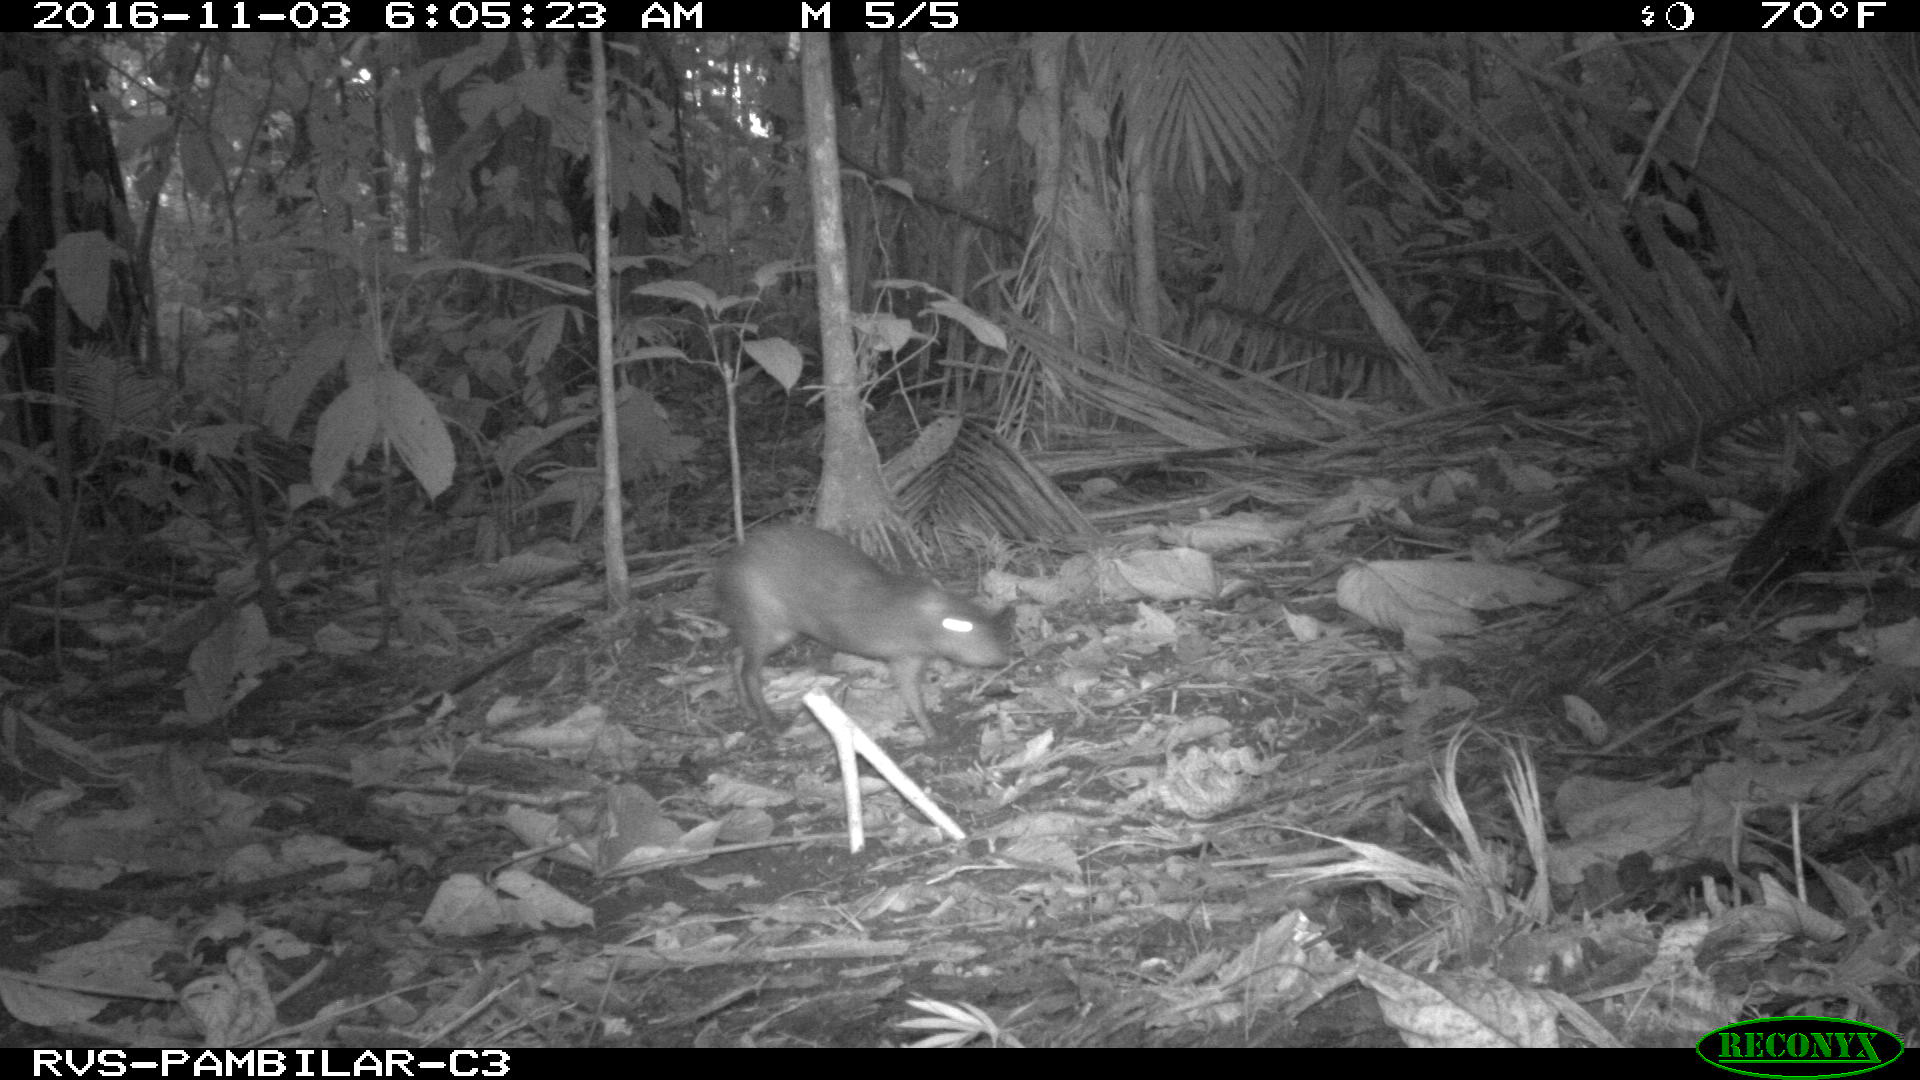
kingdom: Animalia
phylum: Chordata
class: Mammalia
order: Rodentia
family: Dasyproctidae
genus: Dasyprocta
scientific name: Dasyprocta punctata
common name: Central american agouti
